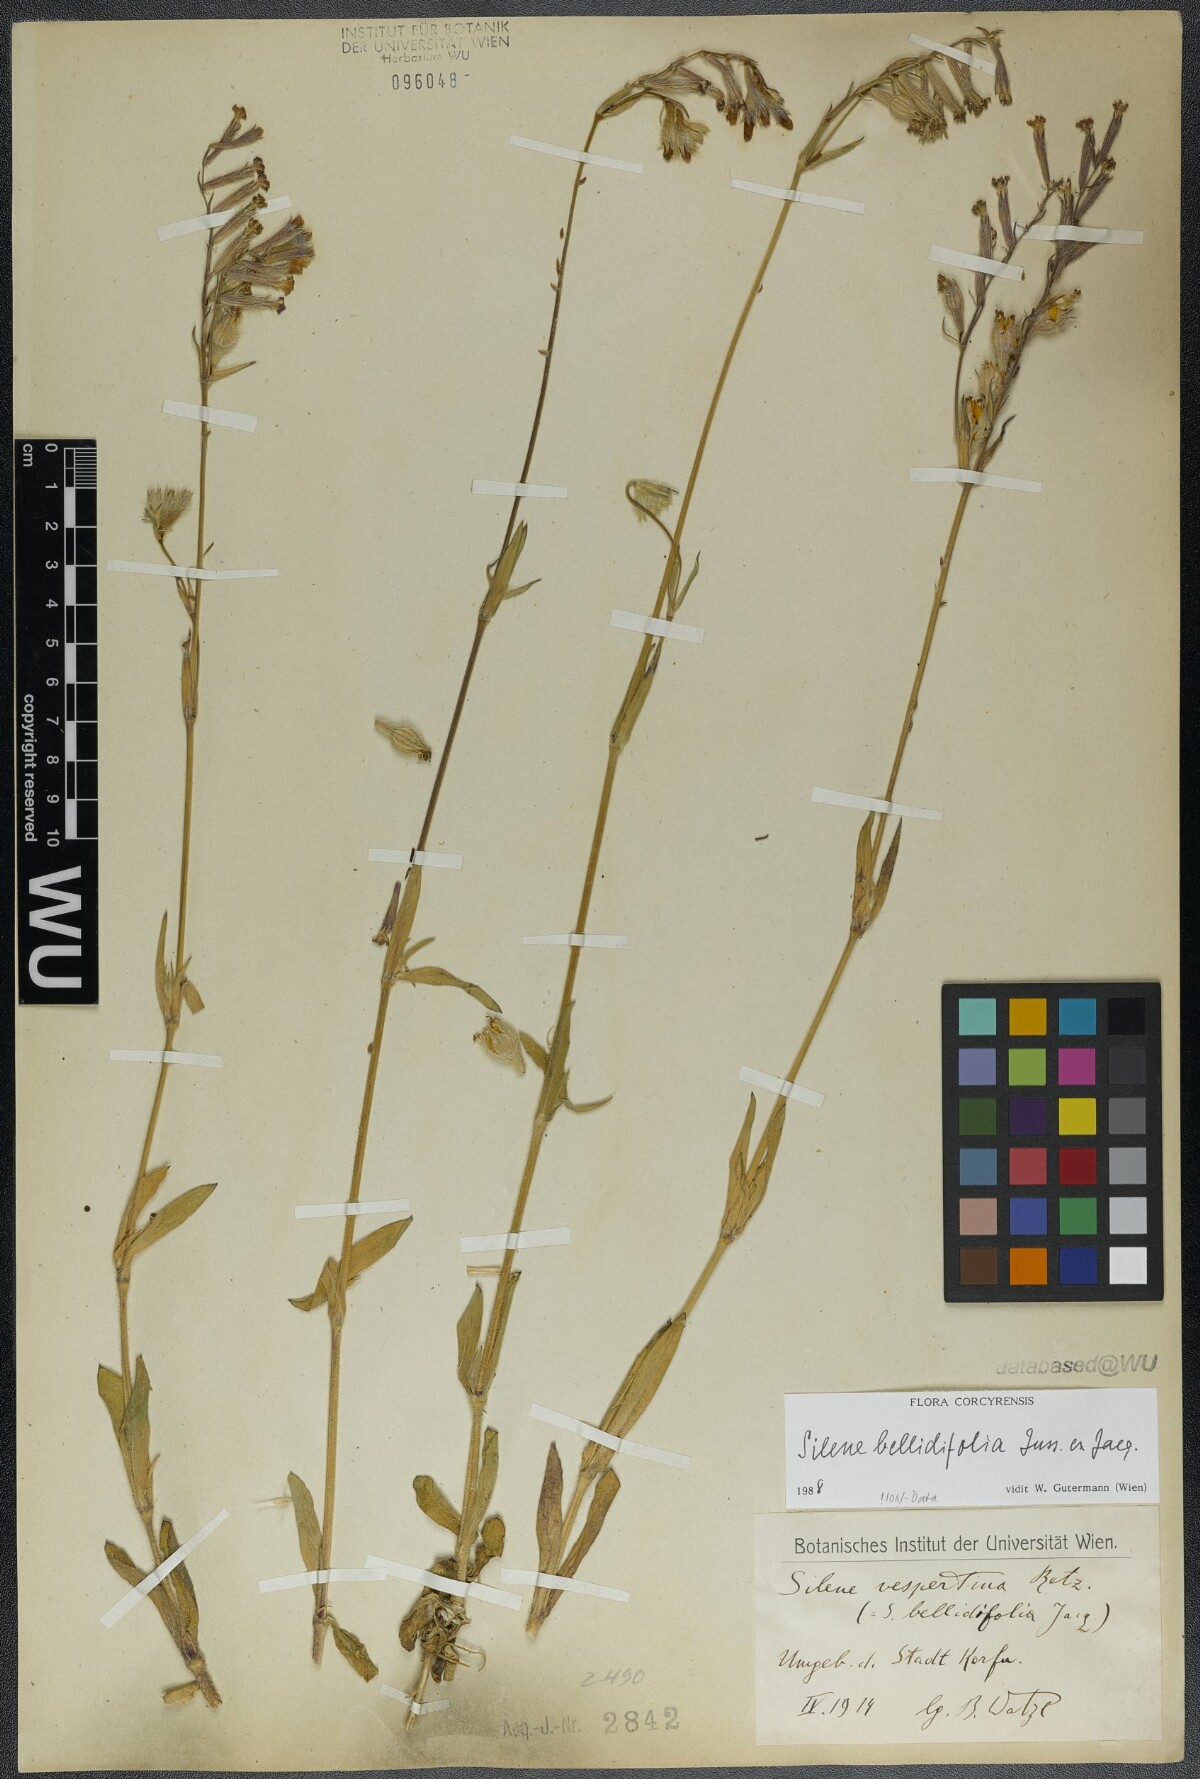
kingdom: Plantae
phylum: Tracheophyta
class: Magnoliopsida
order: Caryophyllales
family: Caryophyllaceae
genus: Silene
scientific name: Silene bellidifolia
